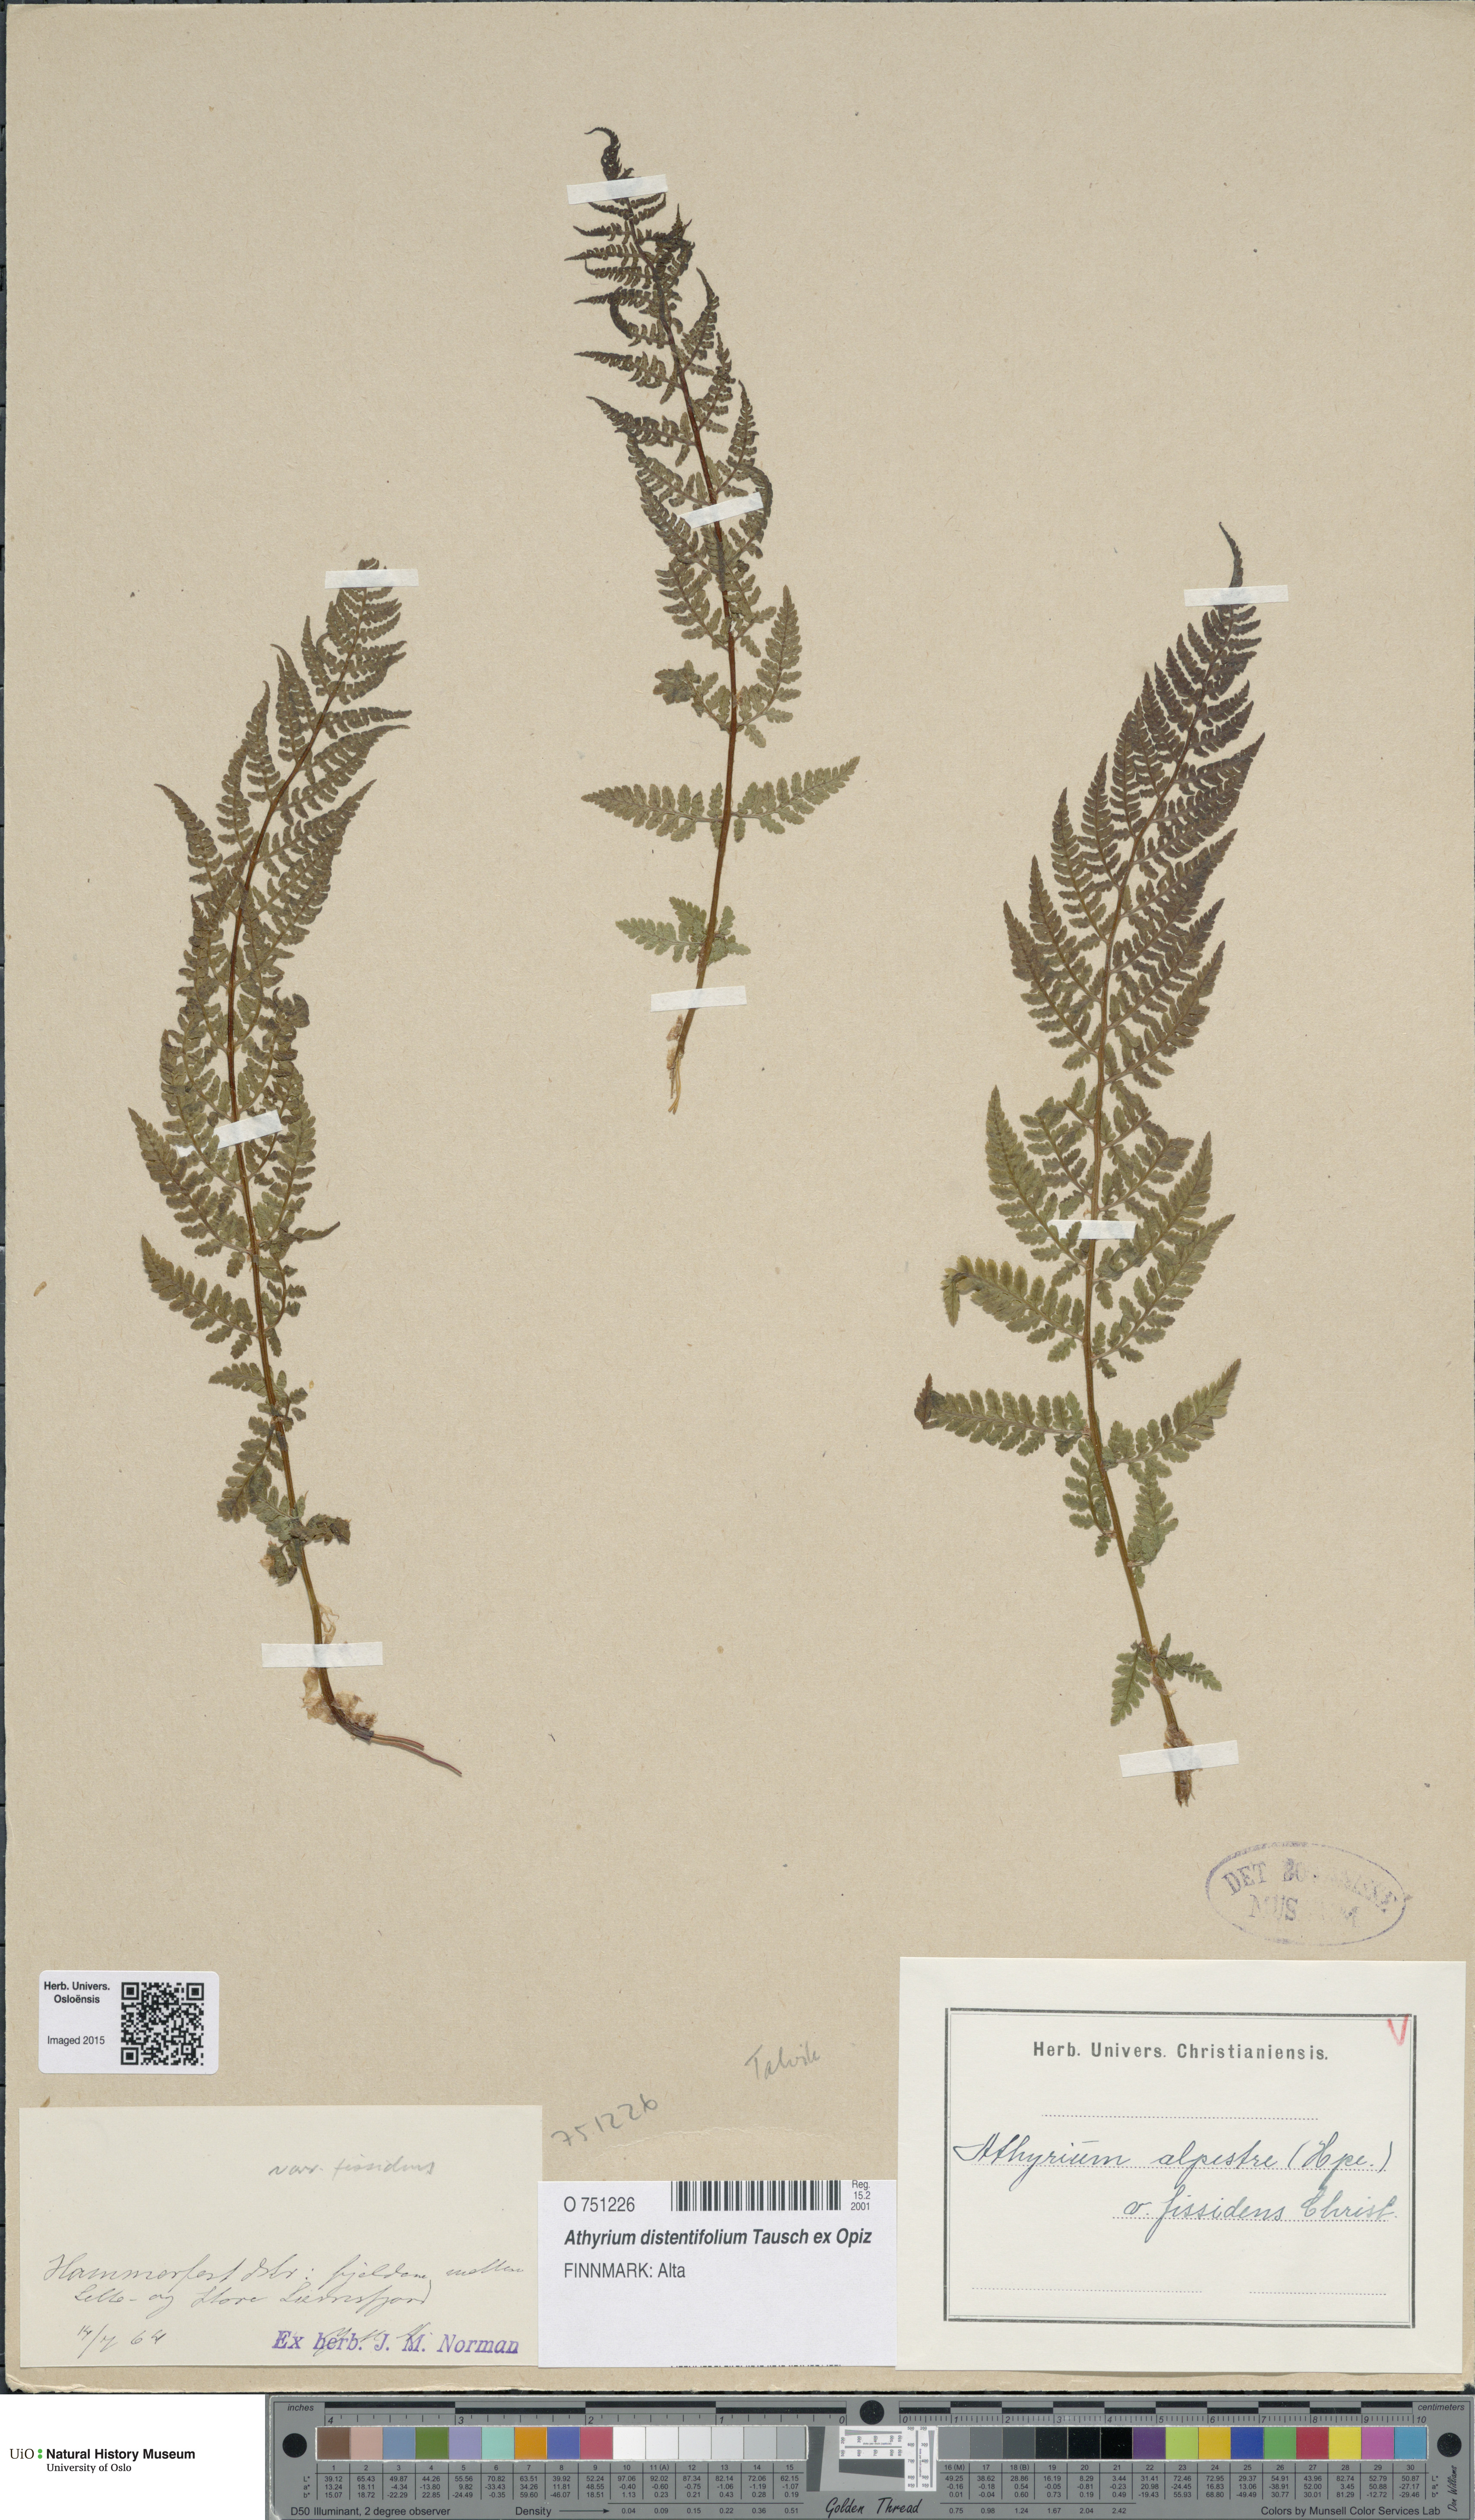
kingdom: Plantae
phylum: Tracheophyta
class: Polypodiopsida
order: Polypodiales
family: Athyriaceae
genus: Pseudathyrium
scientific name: Pseudathyrium alpestre
